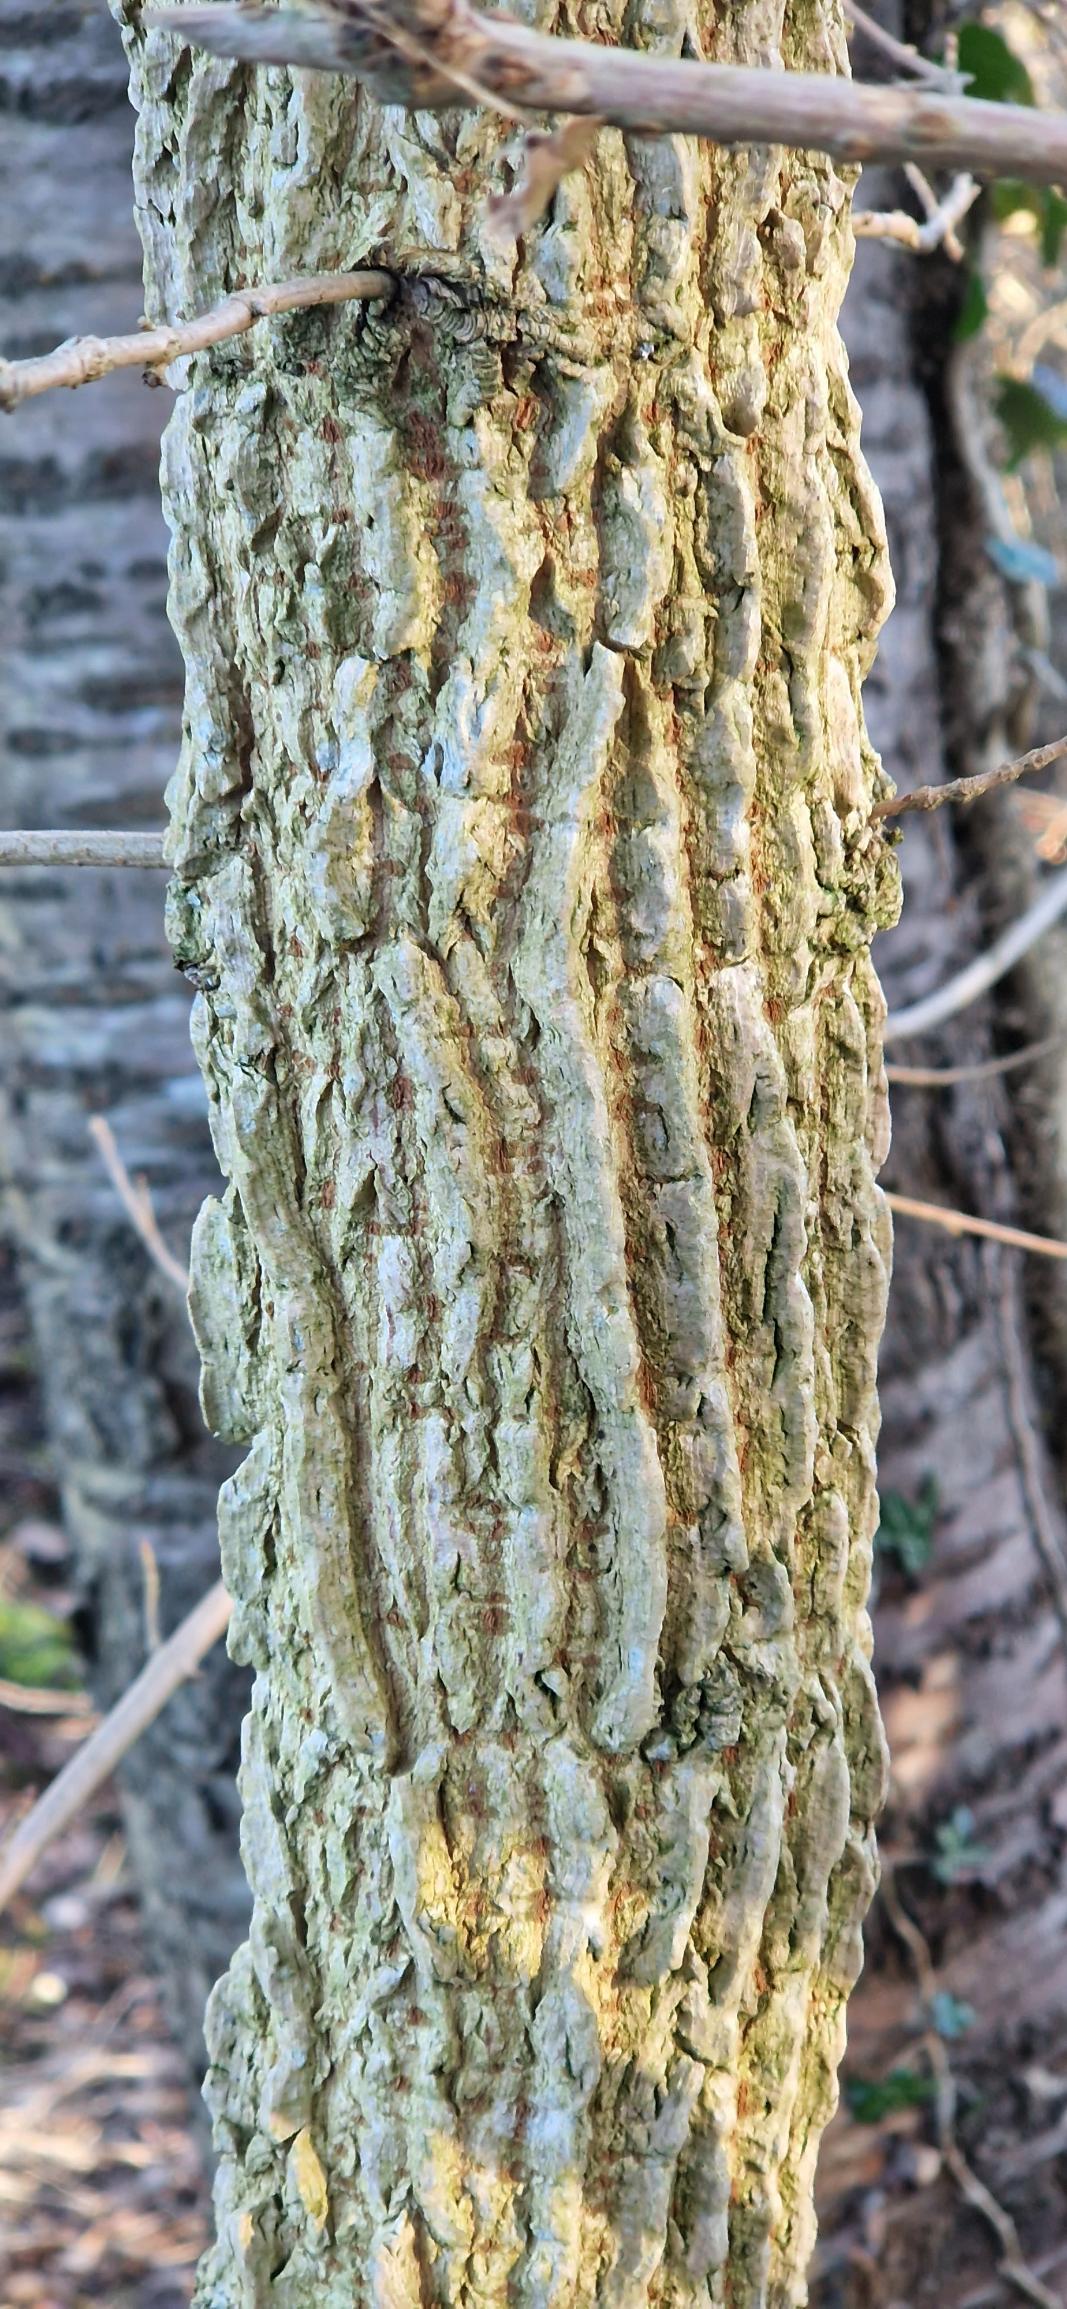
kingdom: Plantae
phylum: Tracheophyta
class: Magnoliopsida
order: Sapindales
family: Sapindaceae
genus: Acer
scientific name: Acer campestre
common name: Navr
